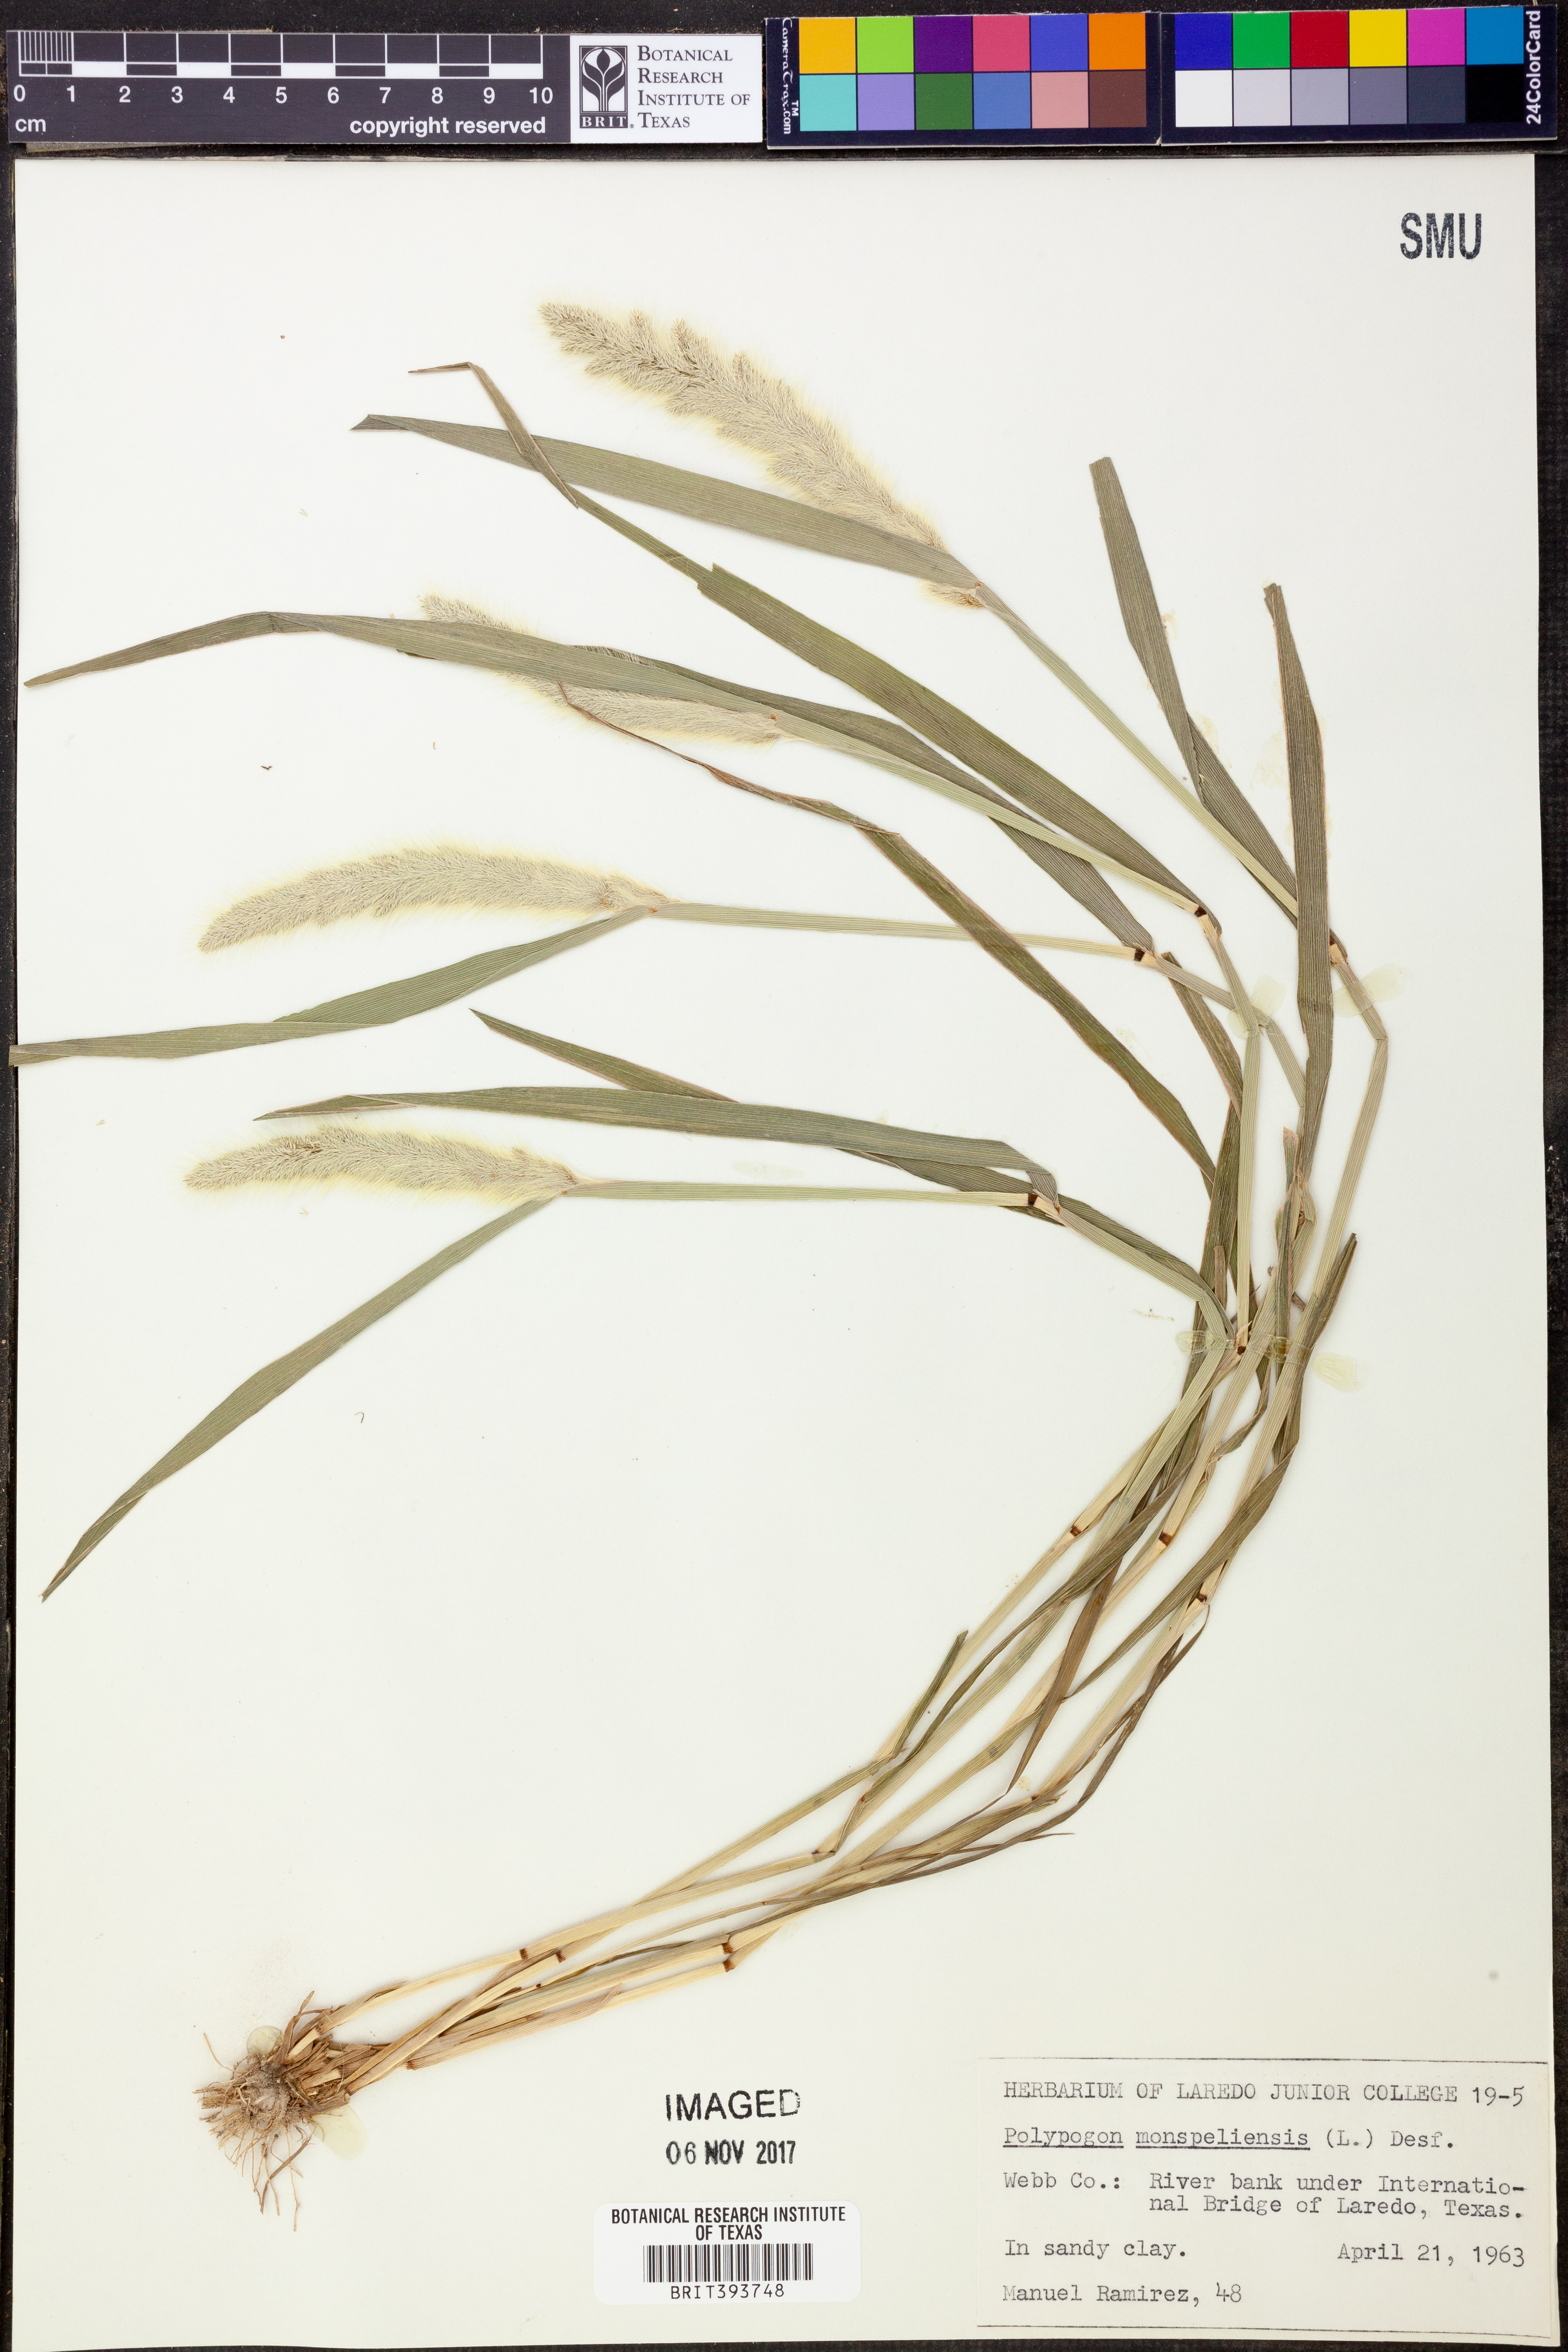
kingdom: Plantae
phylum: Tracheophyta
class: Liliopsida
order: Poales
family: Poaceae
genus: Polypogon
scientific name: Polypogon monspeliensis
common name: Annual rabbitsfoot grass
